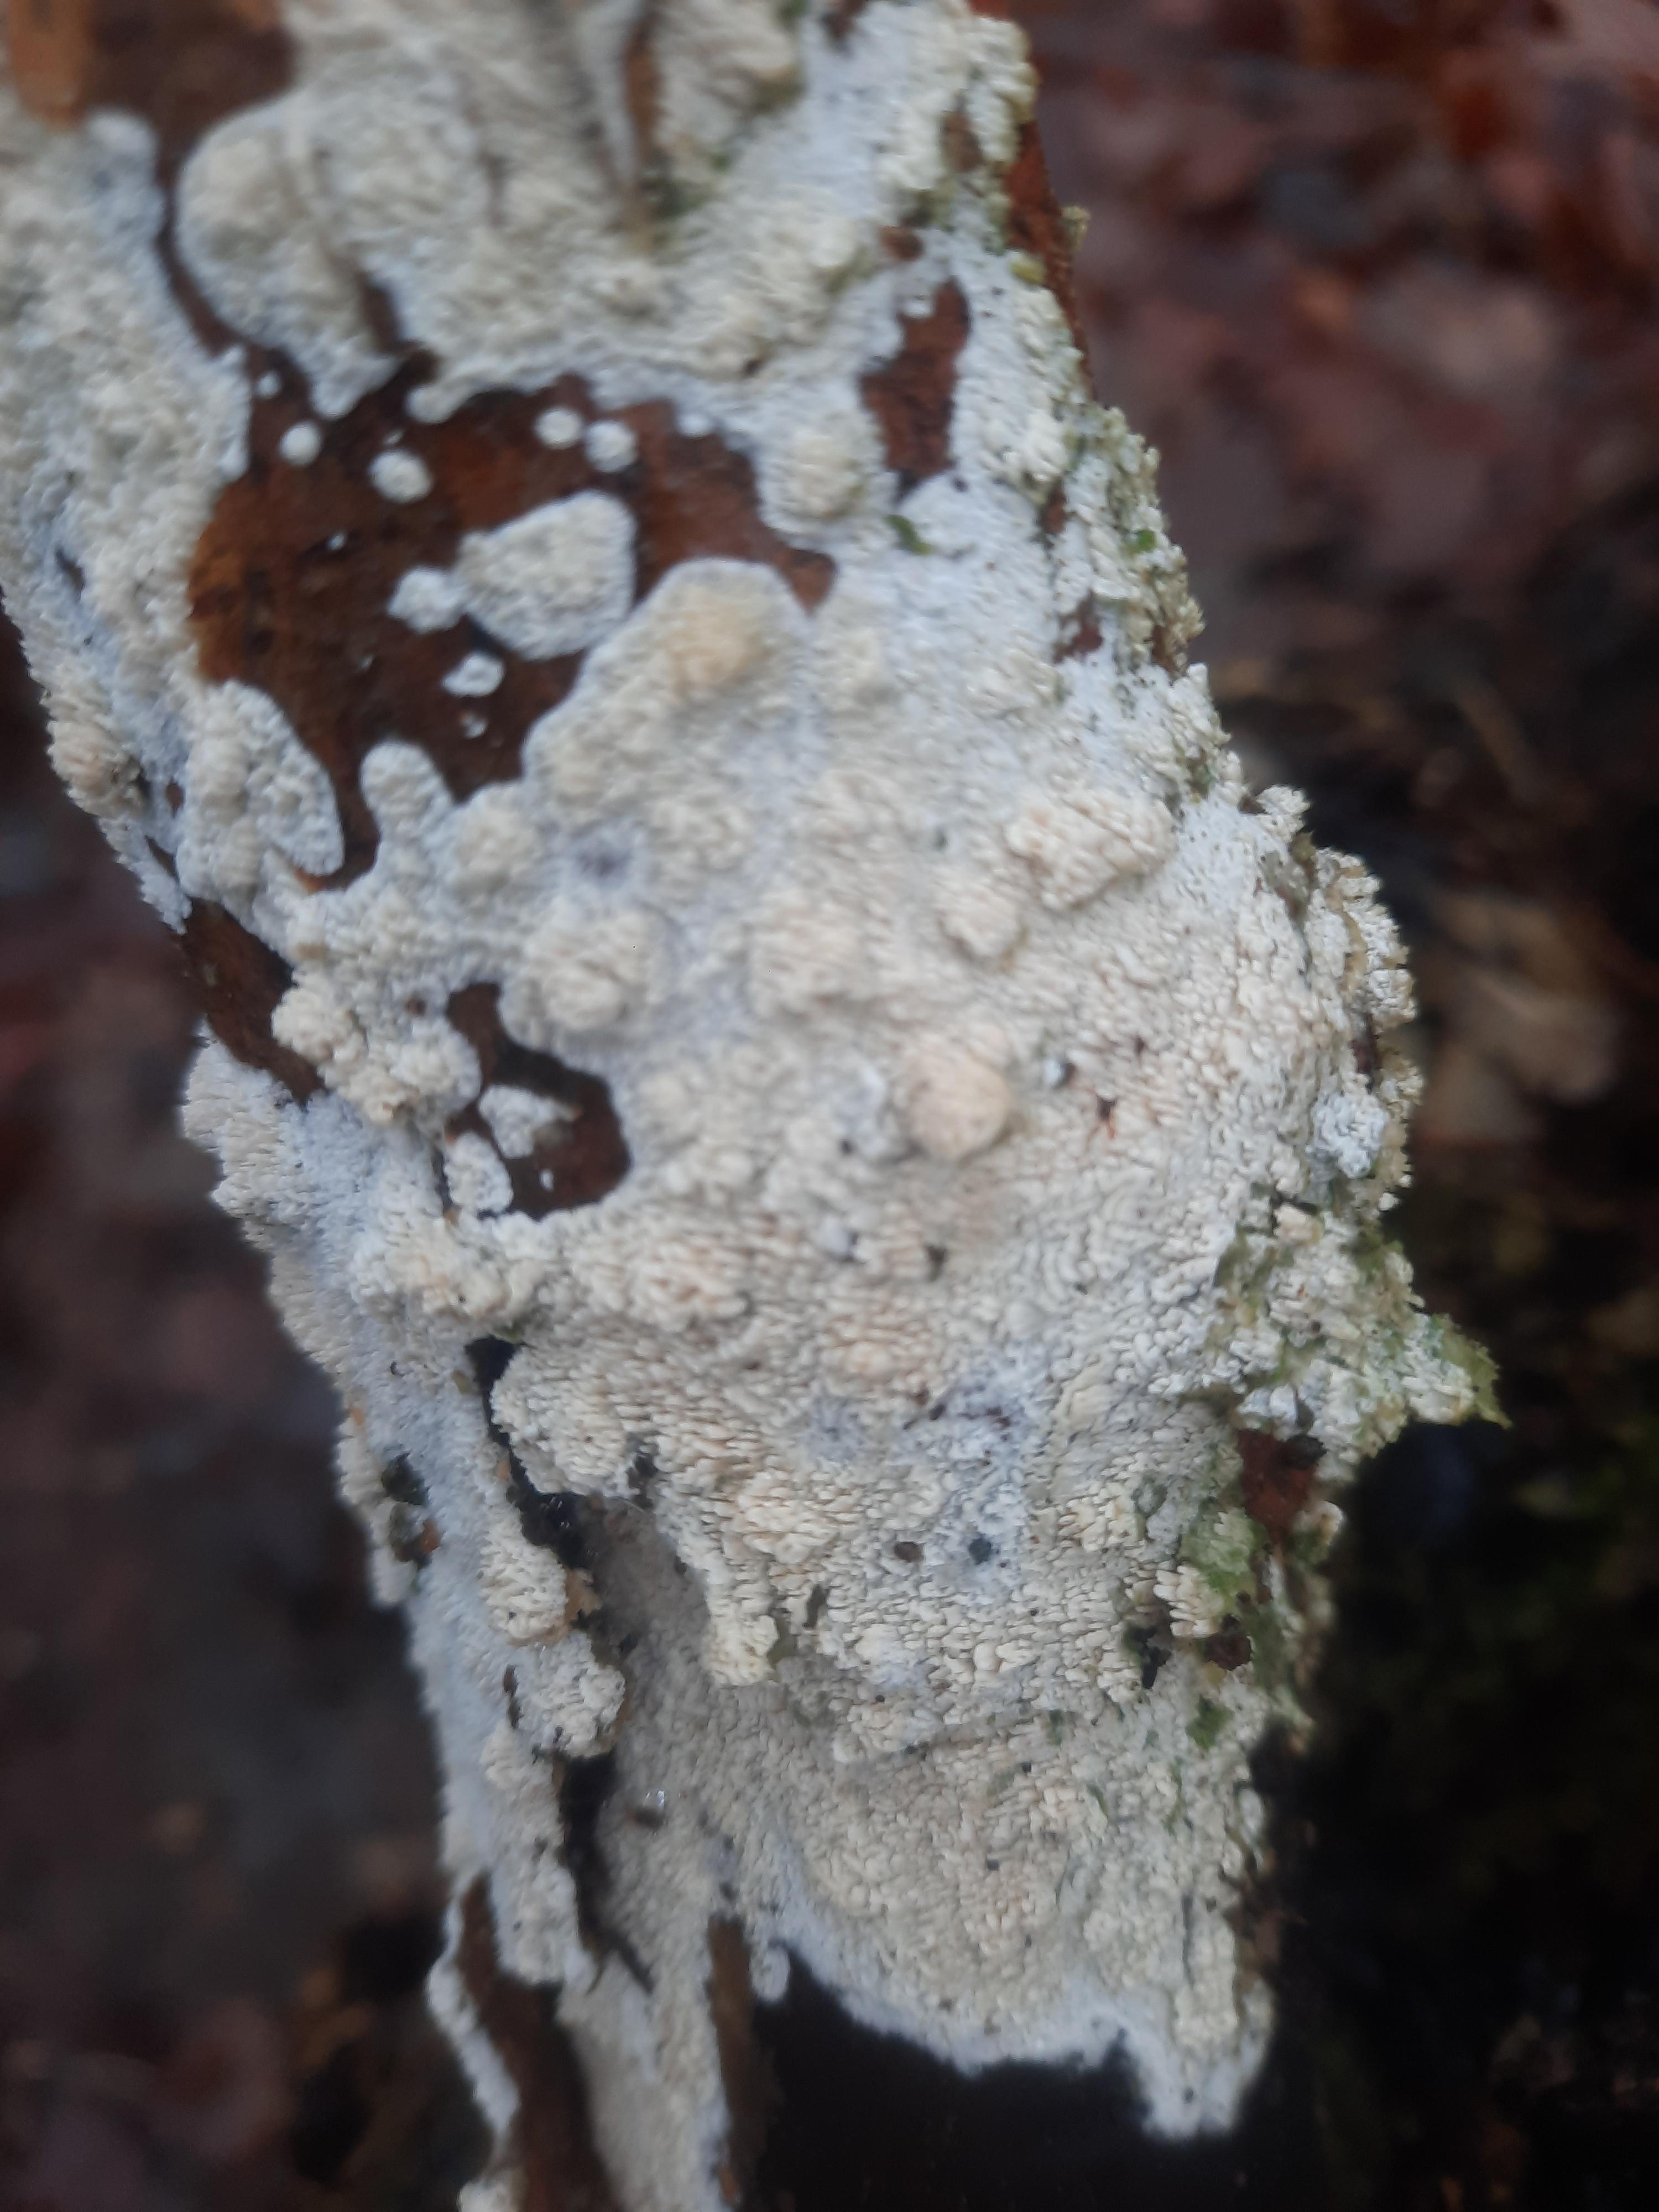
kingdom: Fungi
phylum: Basidiomycota
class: Agaricomycetes
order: Corticiales
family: Corticiaceae
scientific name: Corticiaceae
